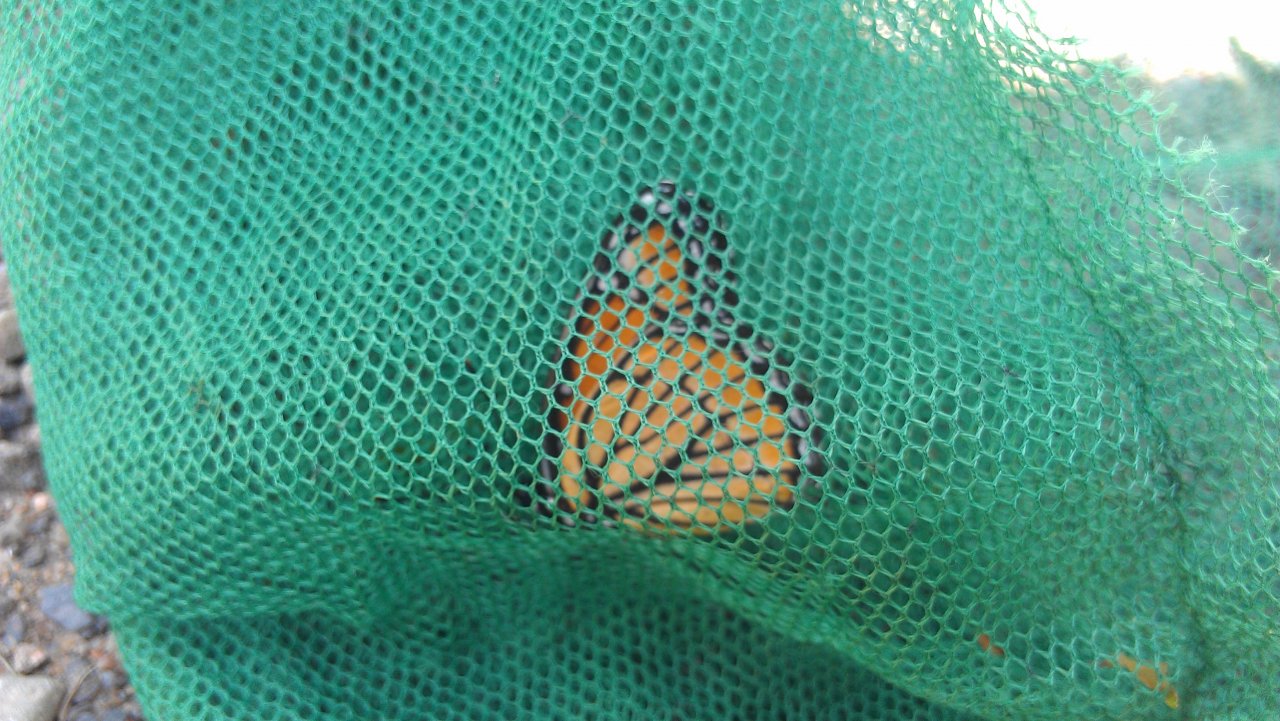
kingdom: Animalia
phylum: Arthropoda
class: Insecta
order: Lepidoptera
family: Nymphalidae
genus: Limenitis
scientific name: Limenitis archippus
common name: Viceroy
